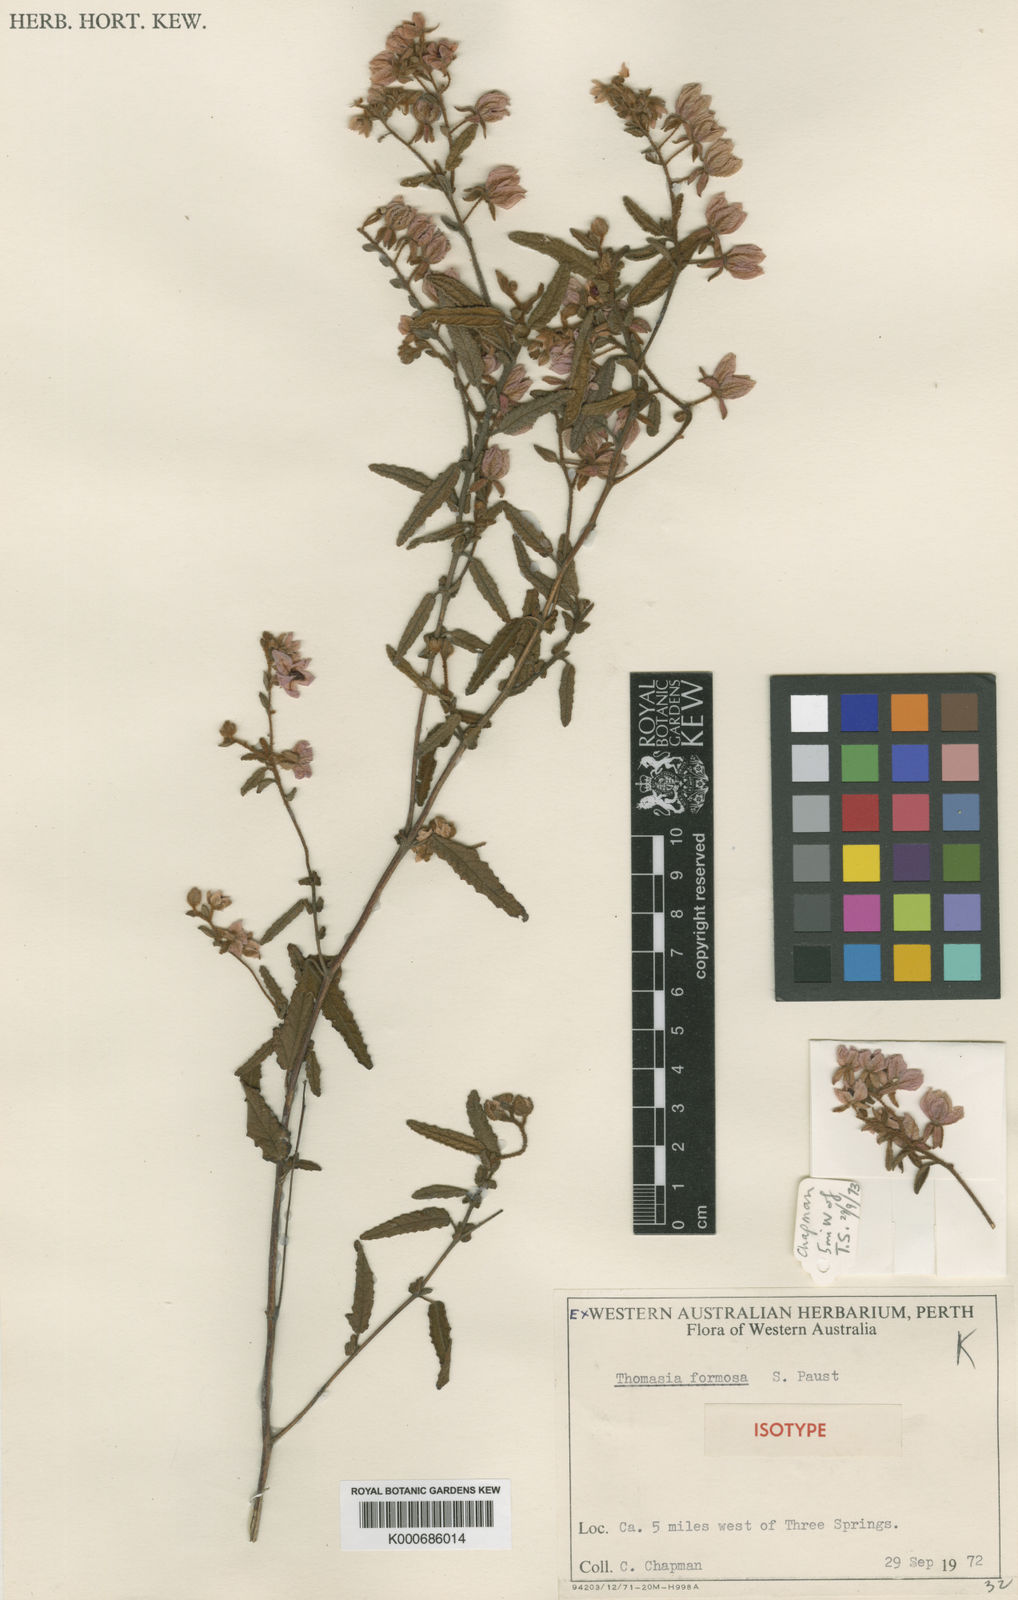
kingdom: Plantae
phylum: Tracheophyta
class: Magnoliopsida
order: Malvales
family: Malvaceae
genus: Thomasia
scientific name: Thomasia formosa
